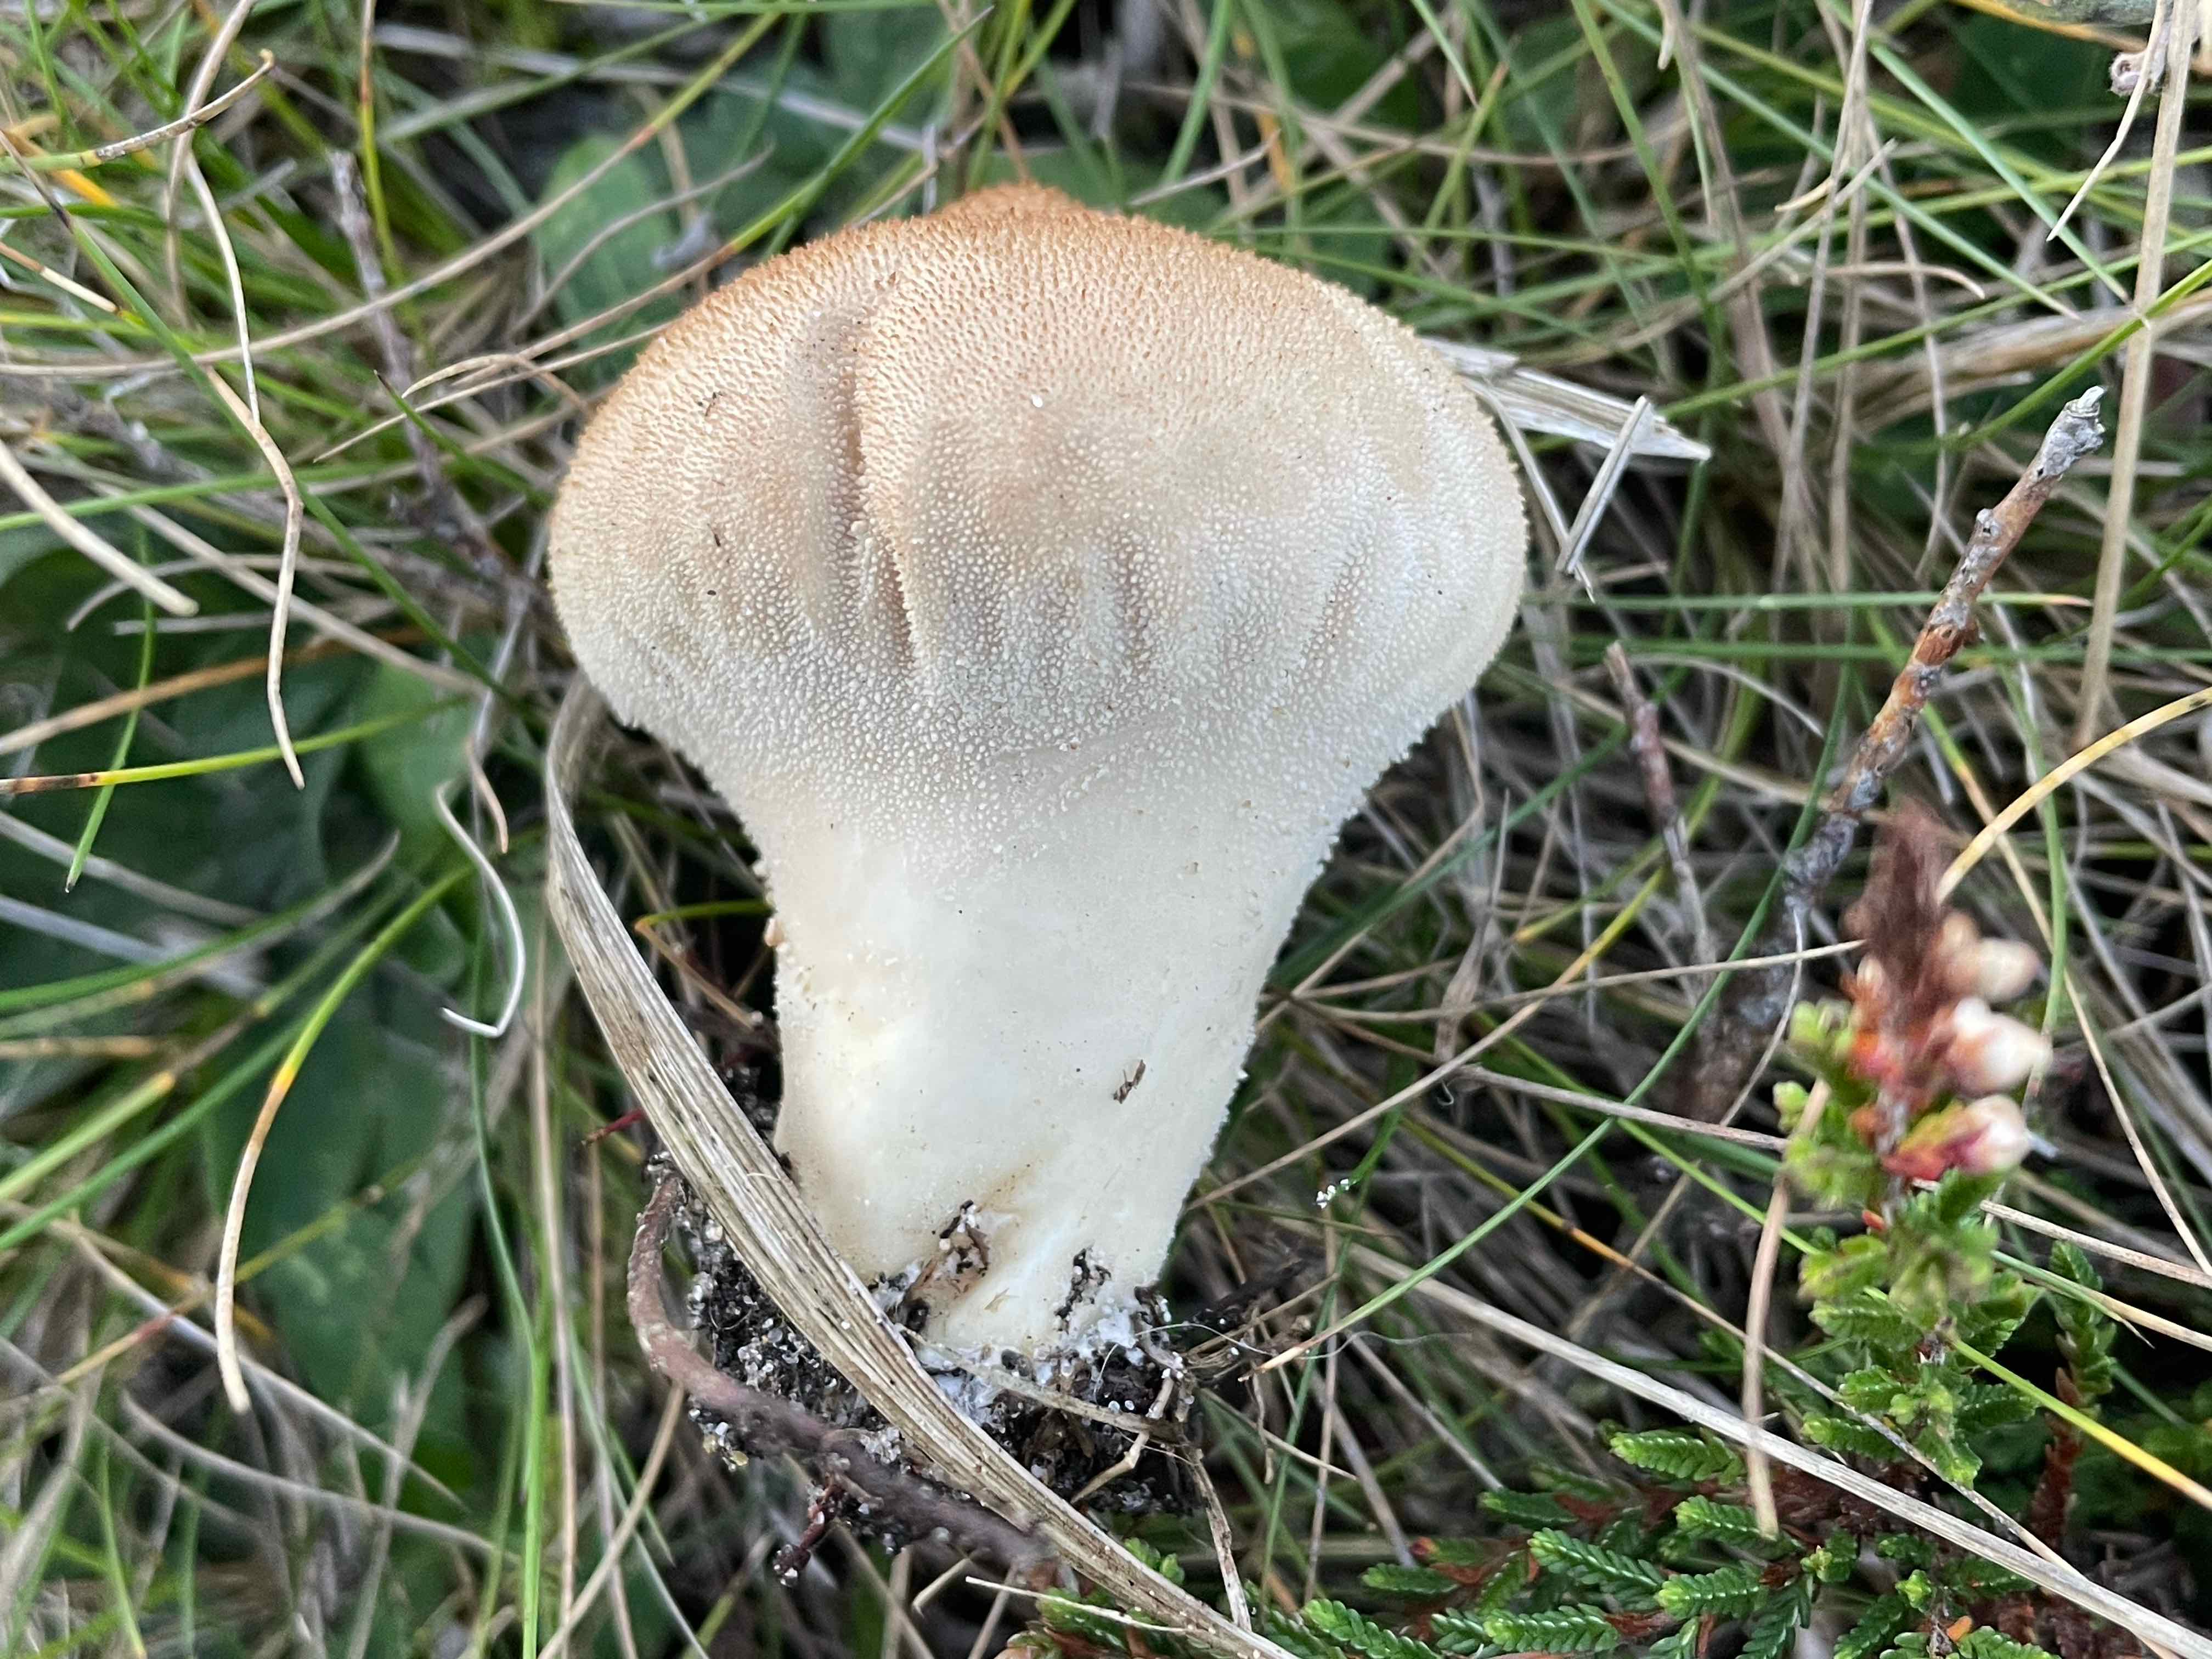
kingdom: Fungi
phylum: Basidiomycota
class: Agaricomycetes
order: Agaricales
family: Lycoperdaceae
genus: Lycoperdon
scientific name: Lycoperdon nigrescens
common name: sortagtig støvbold
